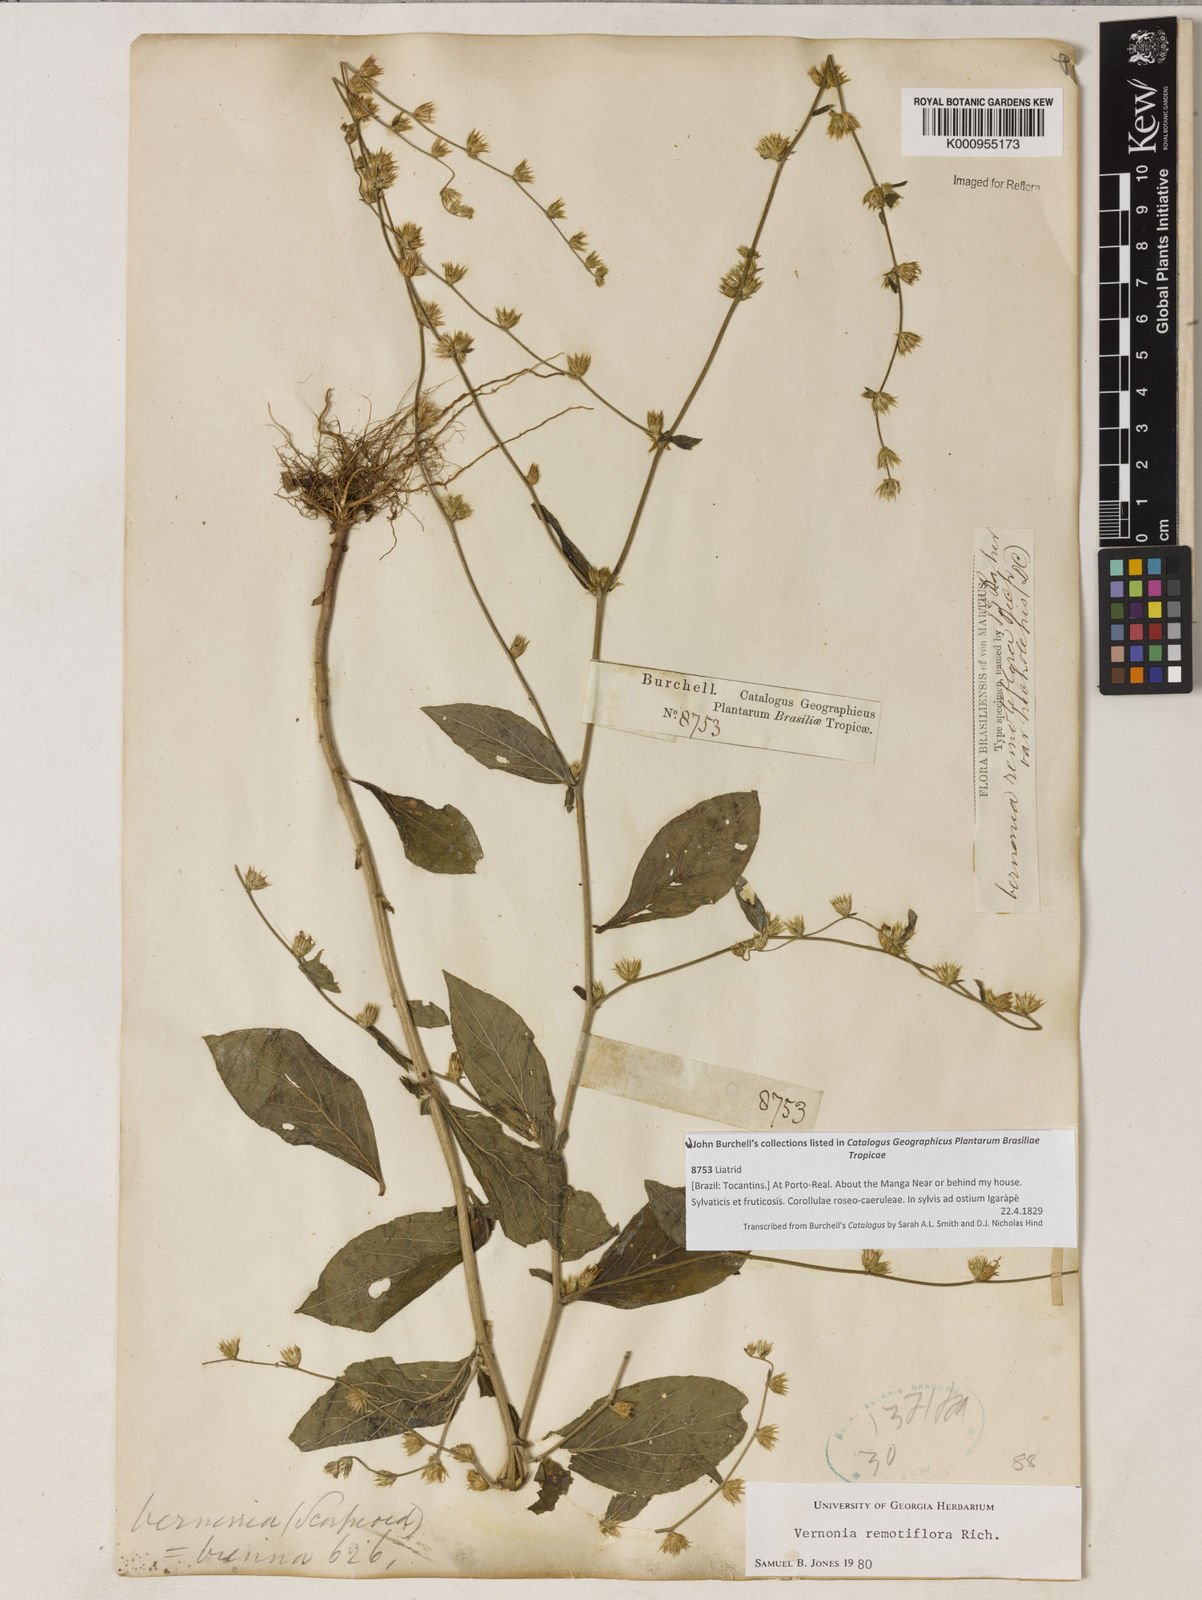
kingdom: Plantae
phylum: Tracheophyta
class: Magnoliopsida
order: Asterales
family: Asteraceae
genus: Lepidaploa
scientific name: Lepidaploa remotiflora
